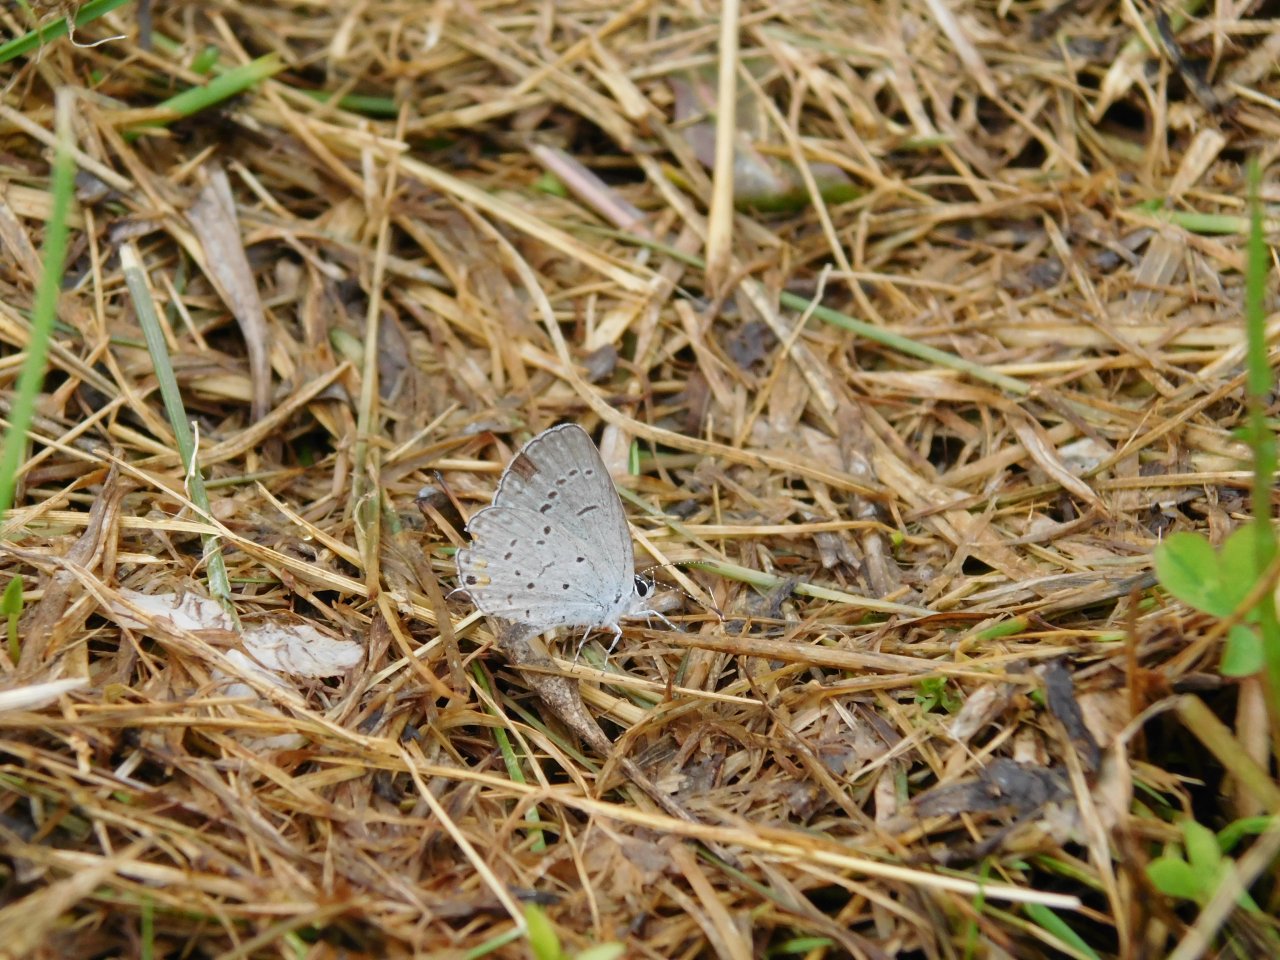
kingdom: Animalia
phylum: Arthropoda
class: Insecta
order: Lepidoptera
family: Lycaenidae
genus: Elkalyce
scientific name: Elkalyce comyntas
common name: Eastern Tailed-Blue
